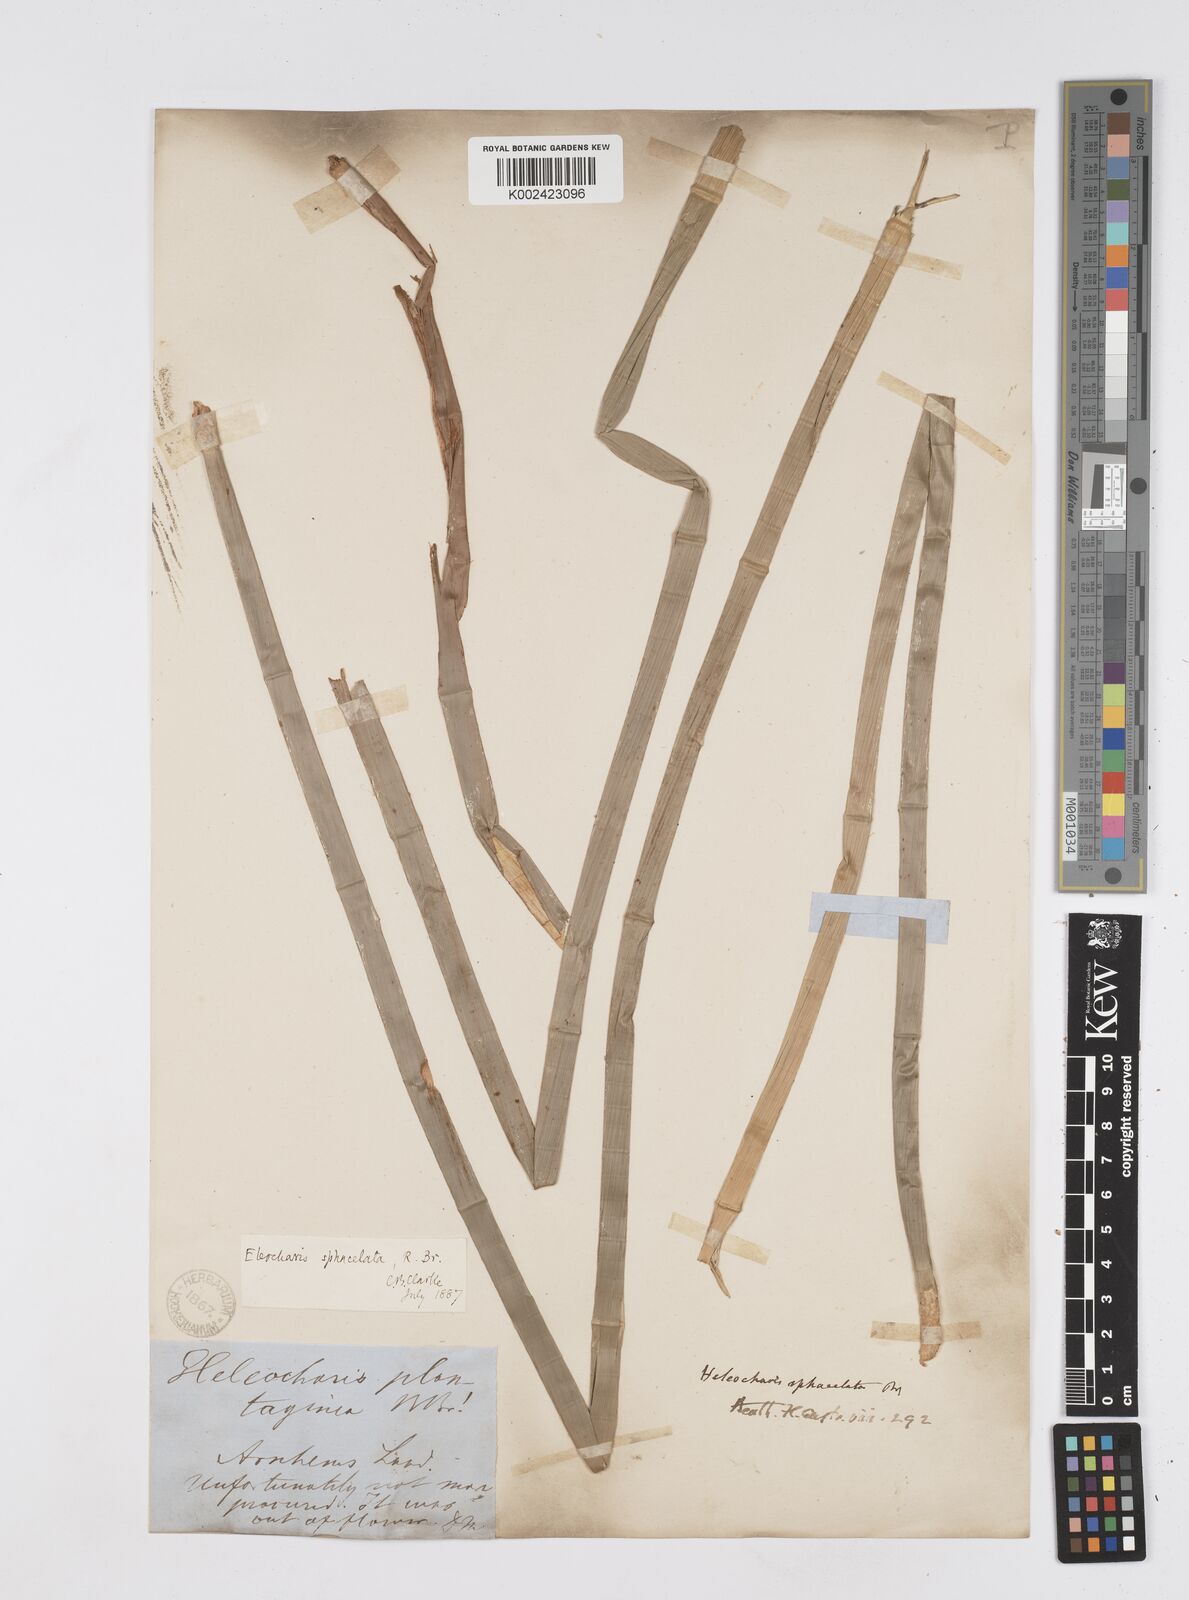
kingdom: Plantae
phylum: Tracheophyta
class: Liliopsida
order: Poales
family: Cyperaceae
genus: Eleocharis
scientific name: Eleocharis sphacelata
